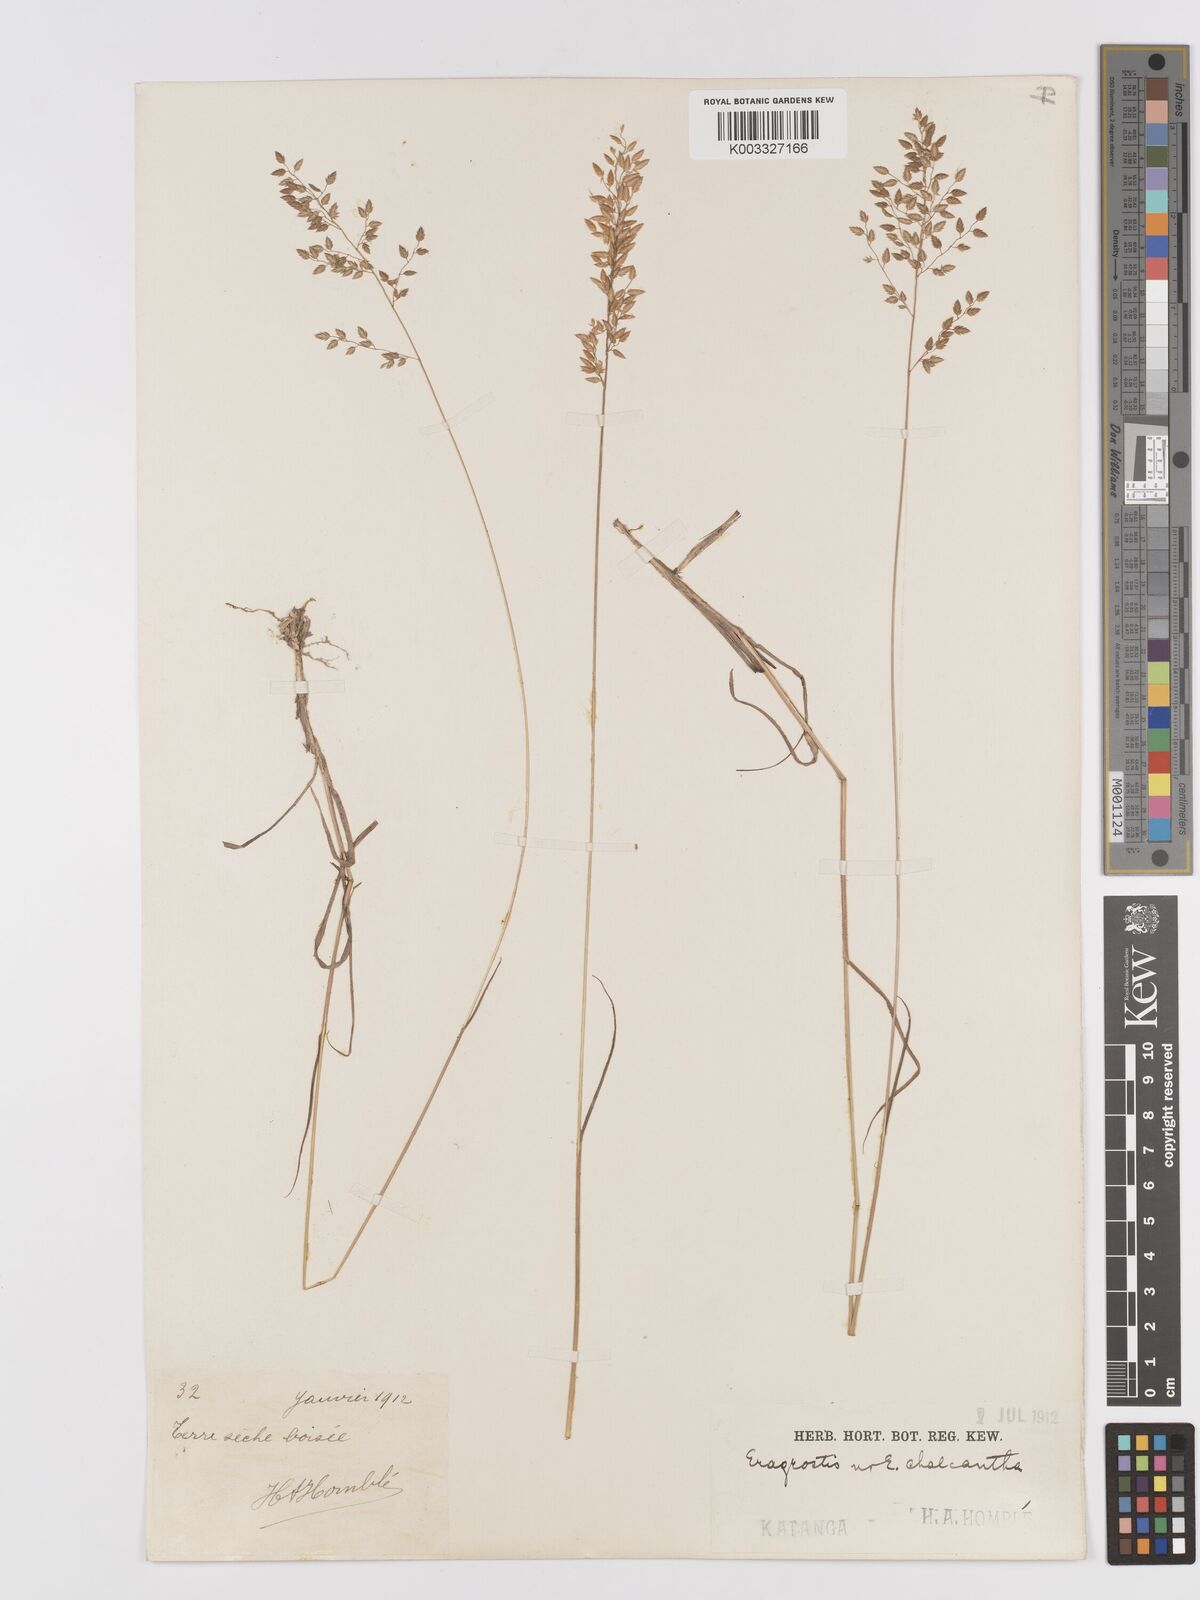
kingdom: Plantae
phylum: Tracheophyta
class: Liliopsida
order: Poales
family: Poaceae
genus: Eragrostis
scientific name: Eragrostis racemosa
